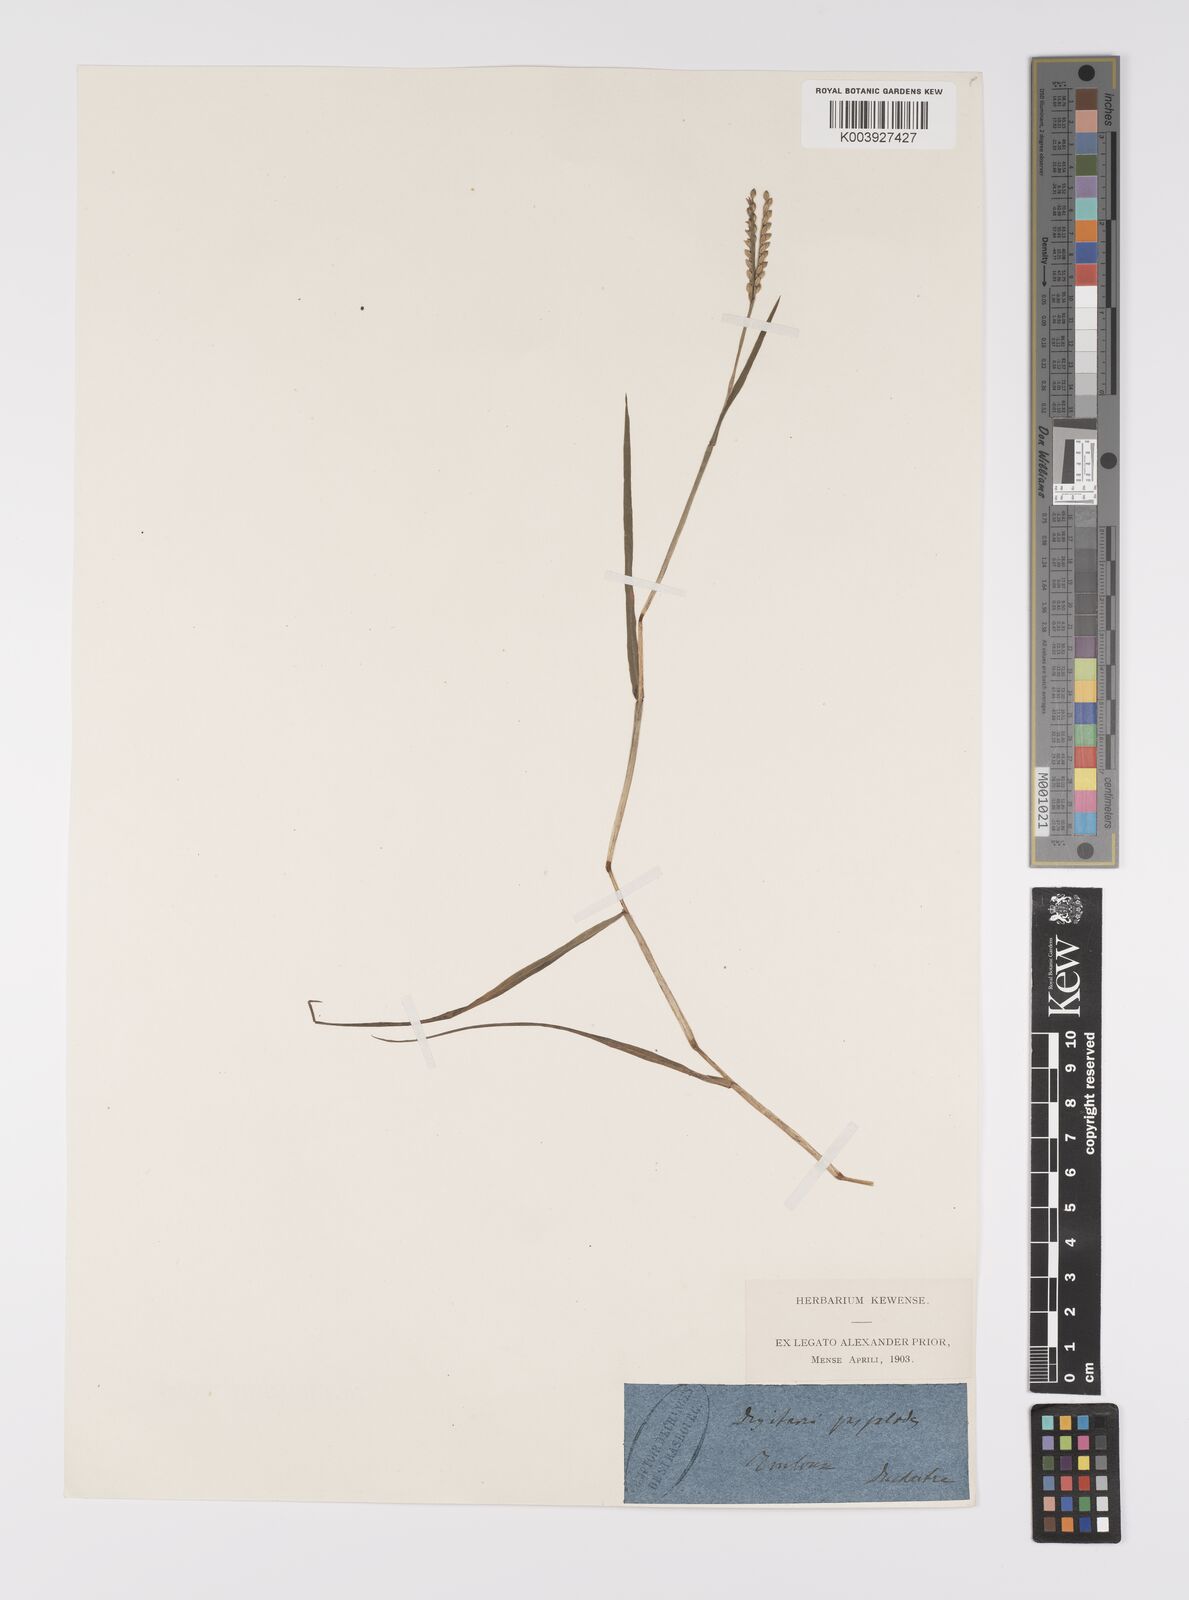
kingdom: Plantae
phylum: Tracheophyta
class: Liliopsida
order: Poales
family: Poaceae
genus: Paspalum
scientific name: Paspalum distichum
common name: Knotgrass
